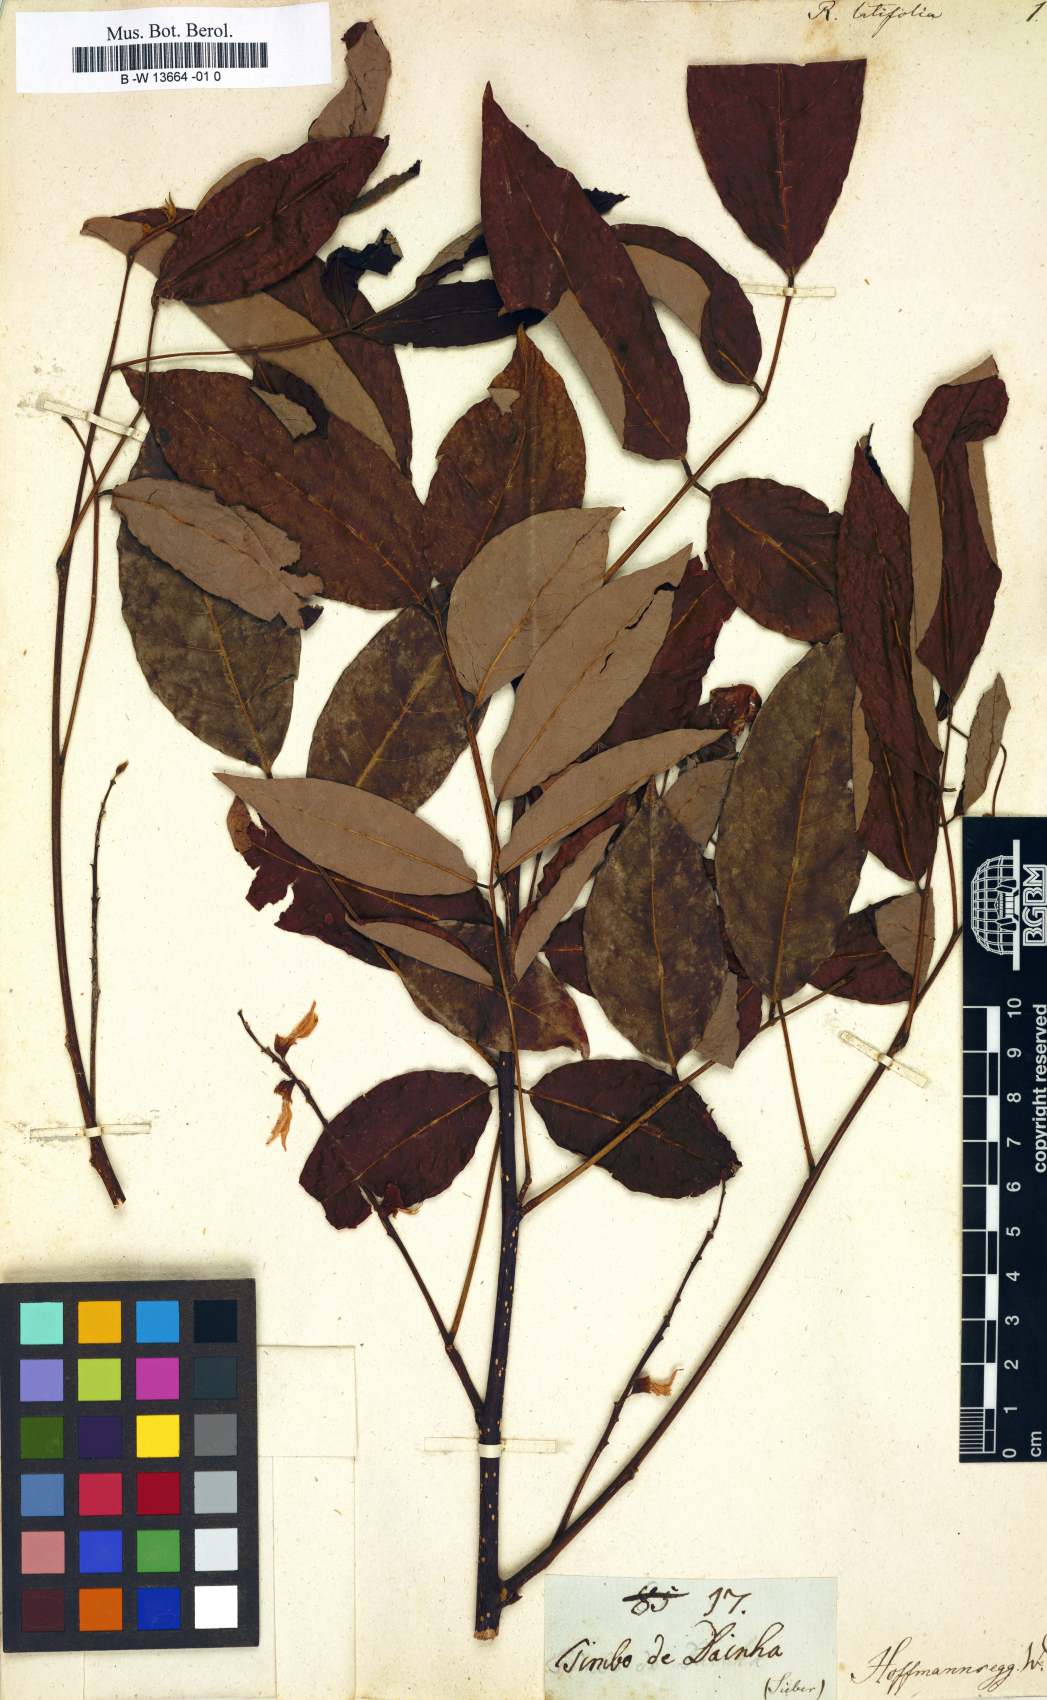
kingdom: Plantae
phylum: Tracheophyta
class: Magnoliopsida
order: Fabales
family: Fabaceae
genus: Lonchocarpus
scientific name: Lonchocarpus longistylus
